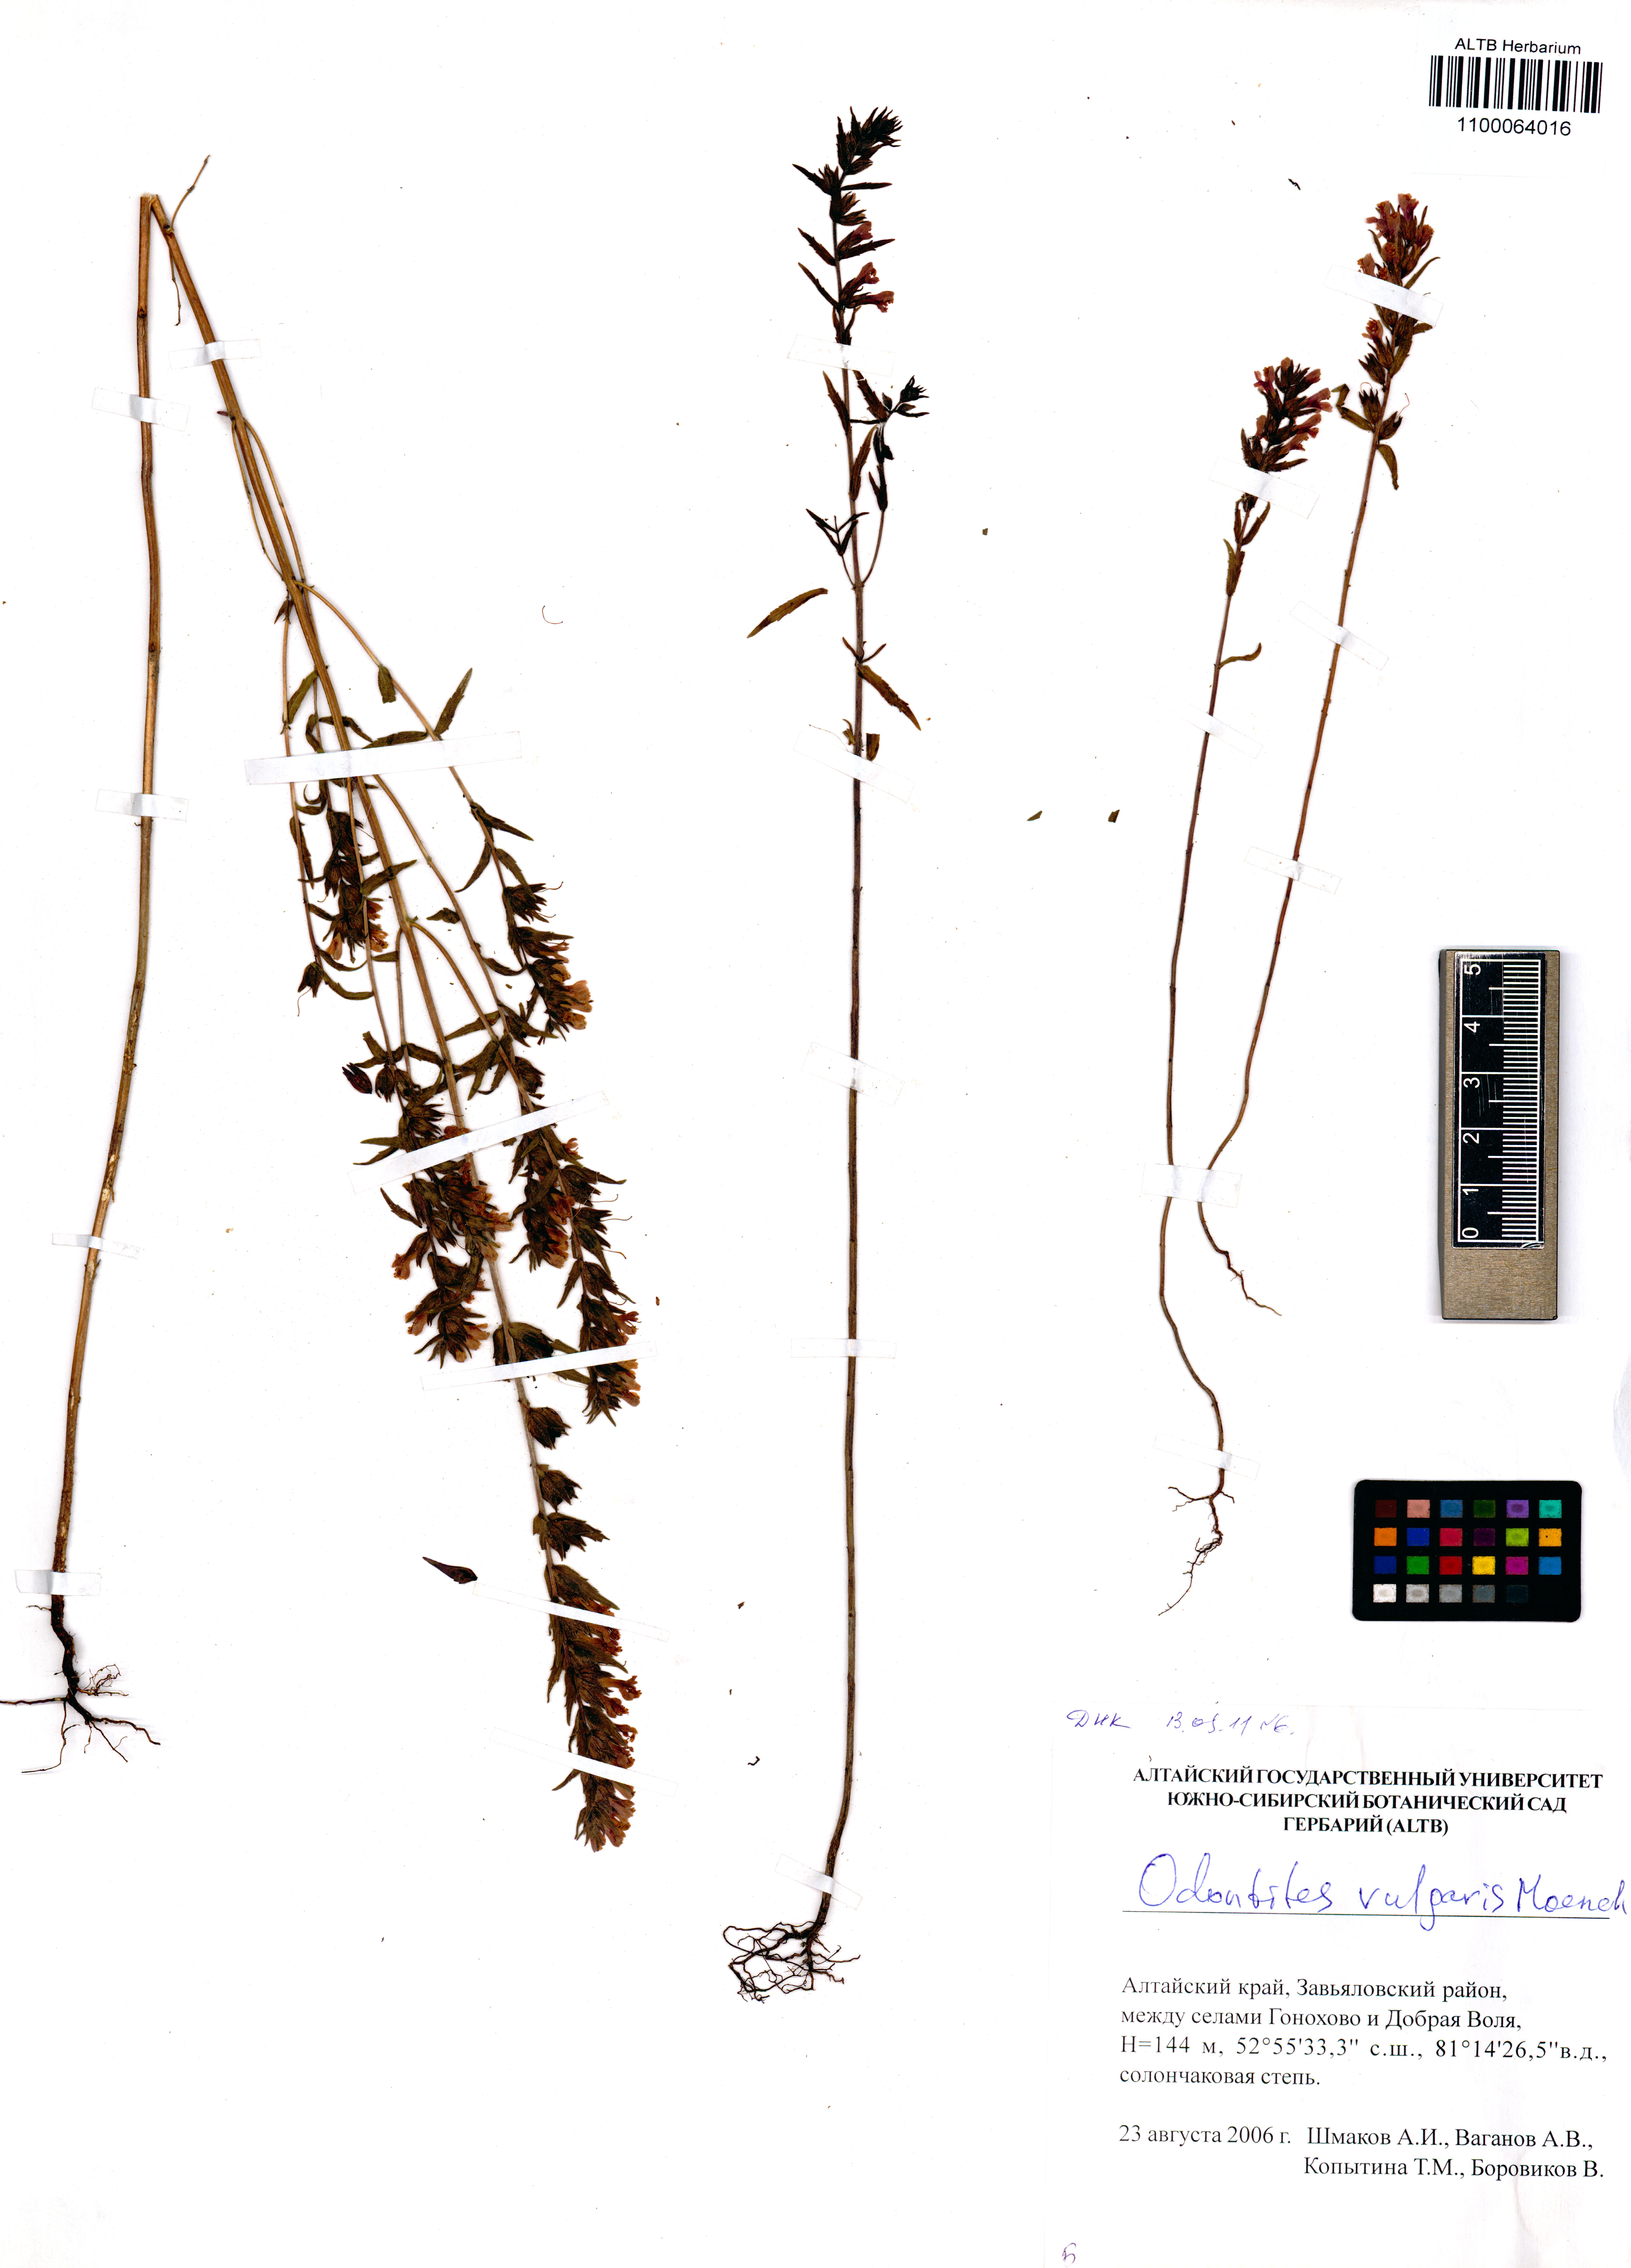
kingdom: Plantae
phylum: Tracheophyta
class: Magnoliopsida
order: Lamiales
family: Orobanchaceae
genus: Odontites
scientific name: Odontites vulgaris
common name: Broomrape
